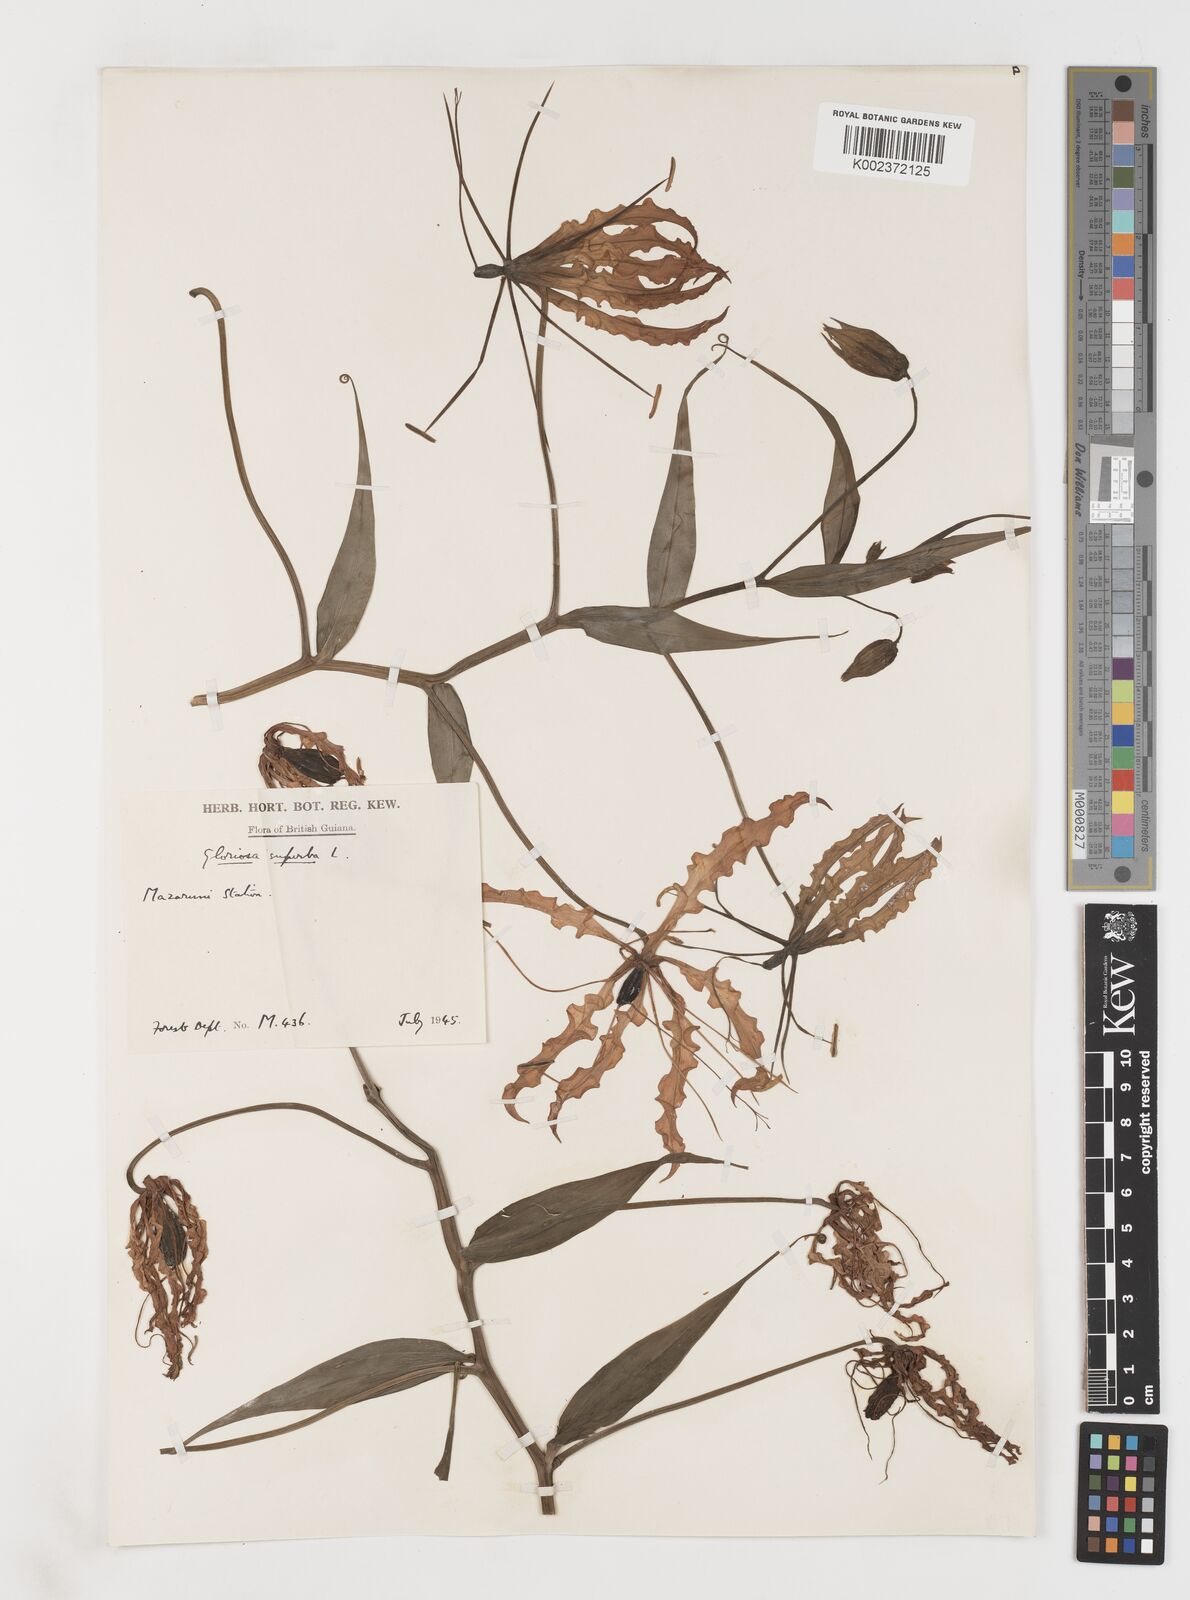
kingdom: Plantae
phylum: Tracheophyta
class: Liliopsida
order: Liliales
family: Colchicaceae
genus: Gloriosa
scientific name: Gloriosa superba
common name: Flame lily
